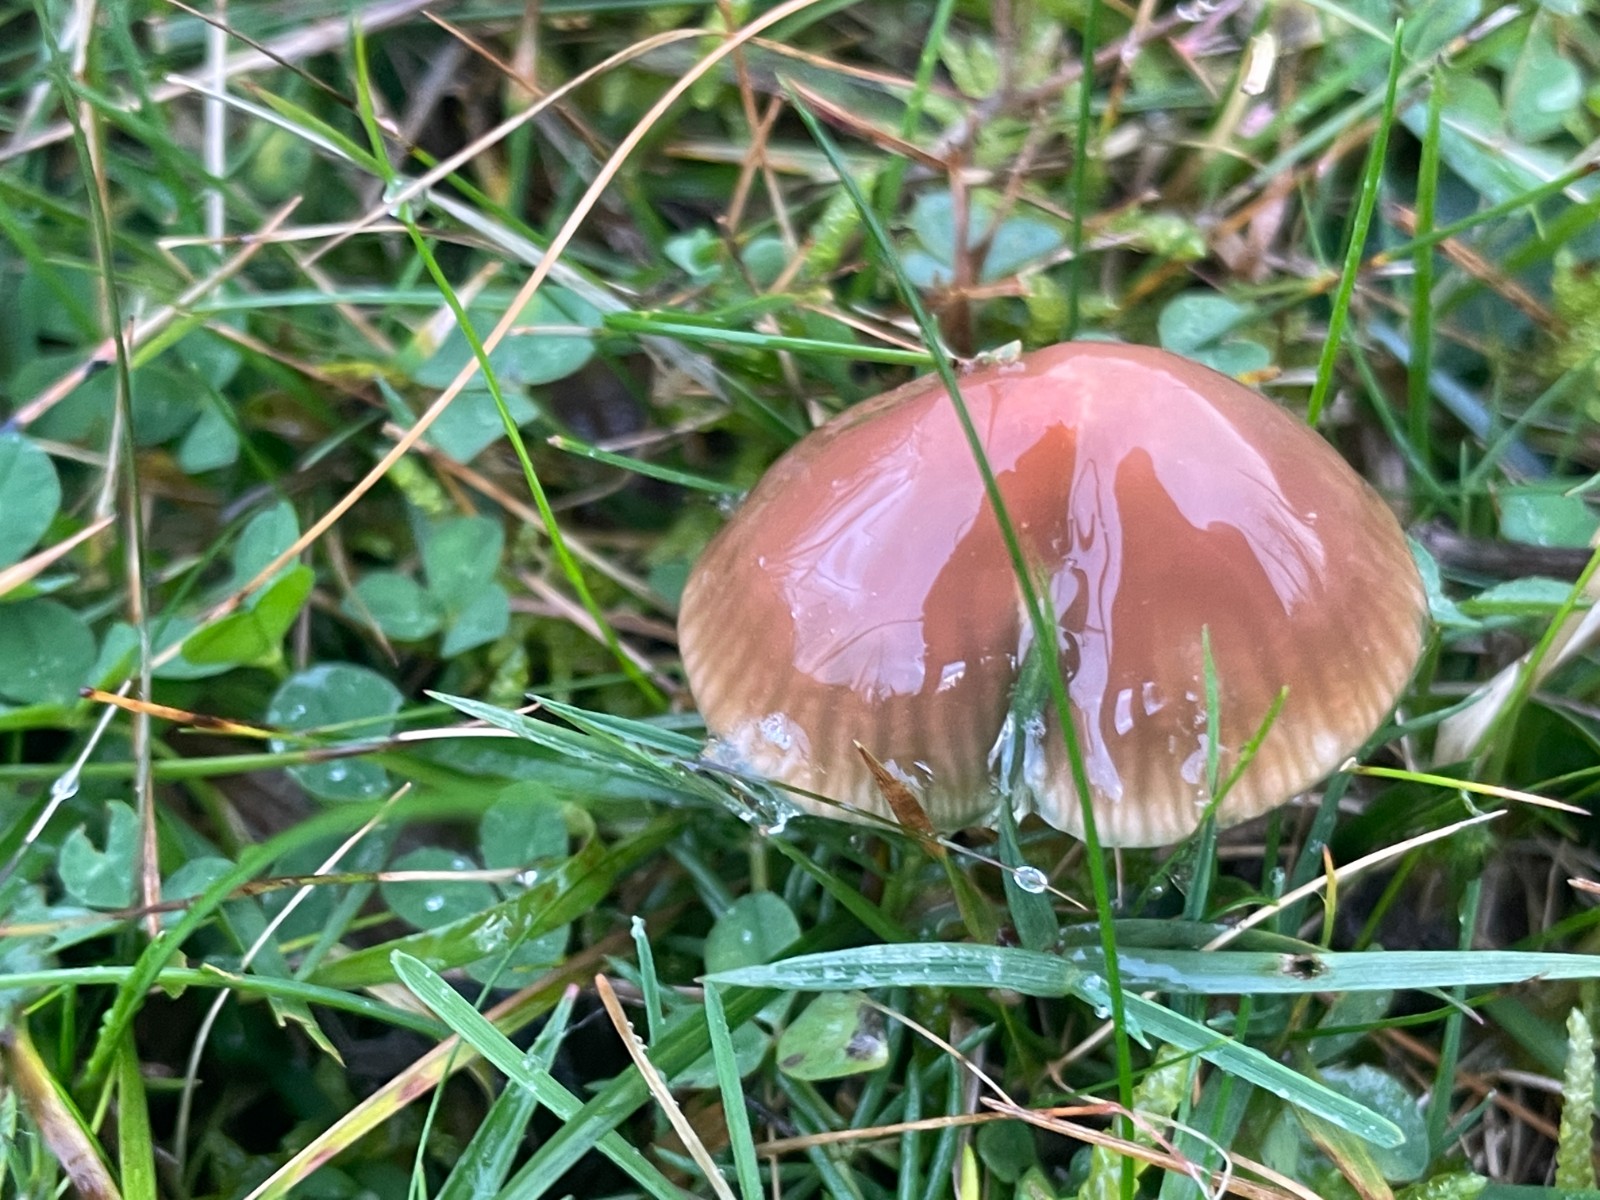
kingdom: Fungi
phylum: Basidiomycota
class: Agaricomycetes
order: Agaricales
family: Hygrophoraceae
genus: Gliophorus
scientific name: Gliophorus psittacinus
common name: papegøje-vokshat
